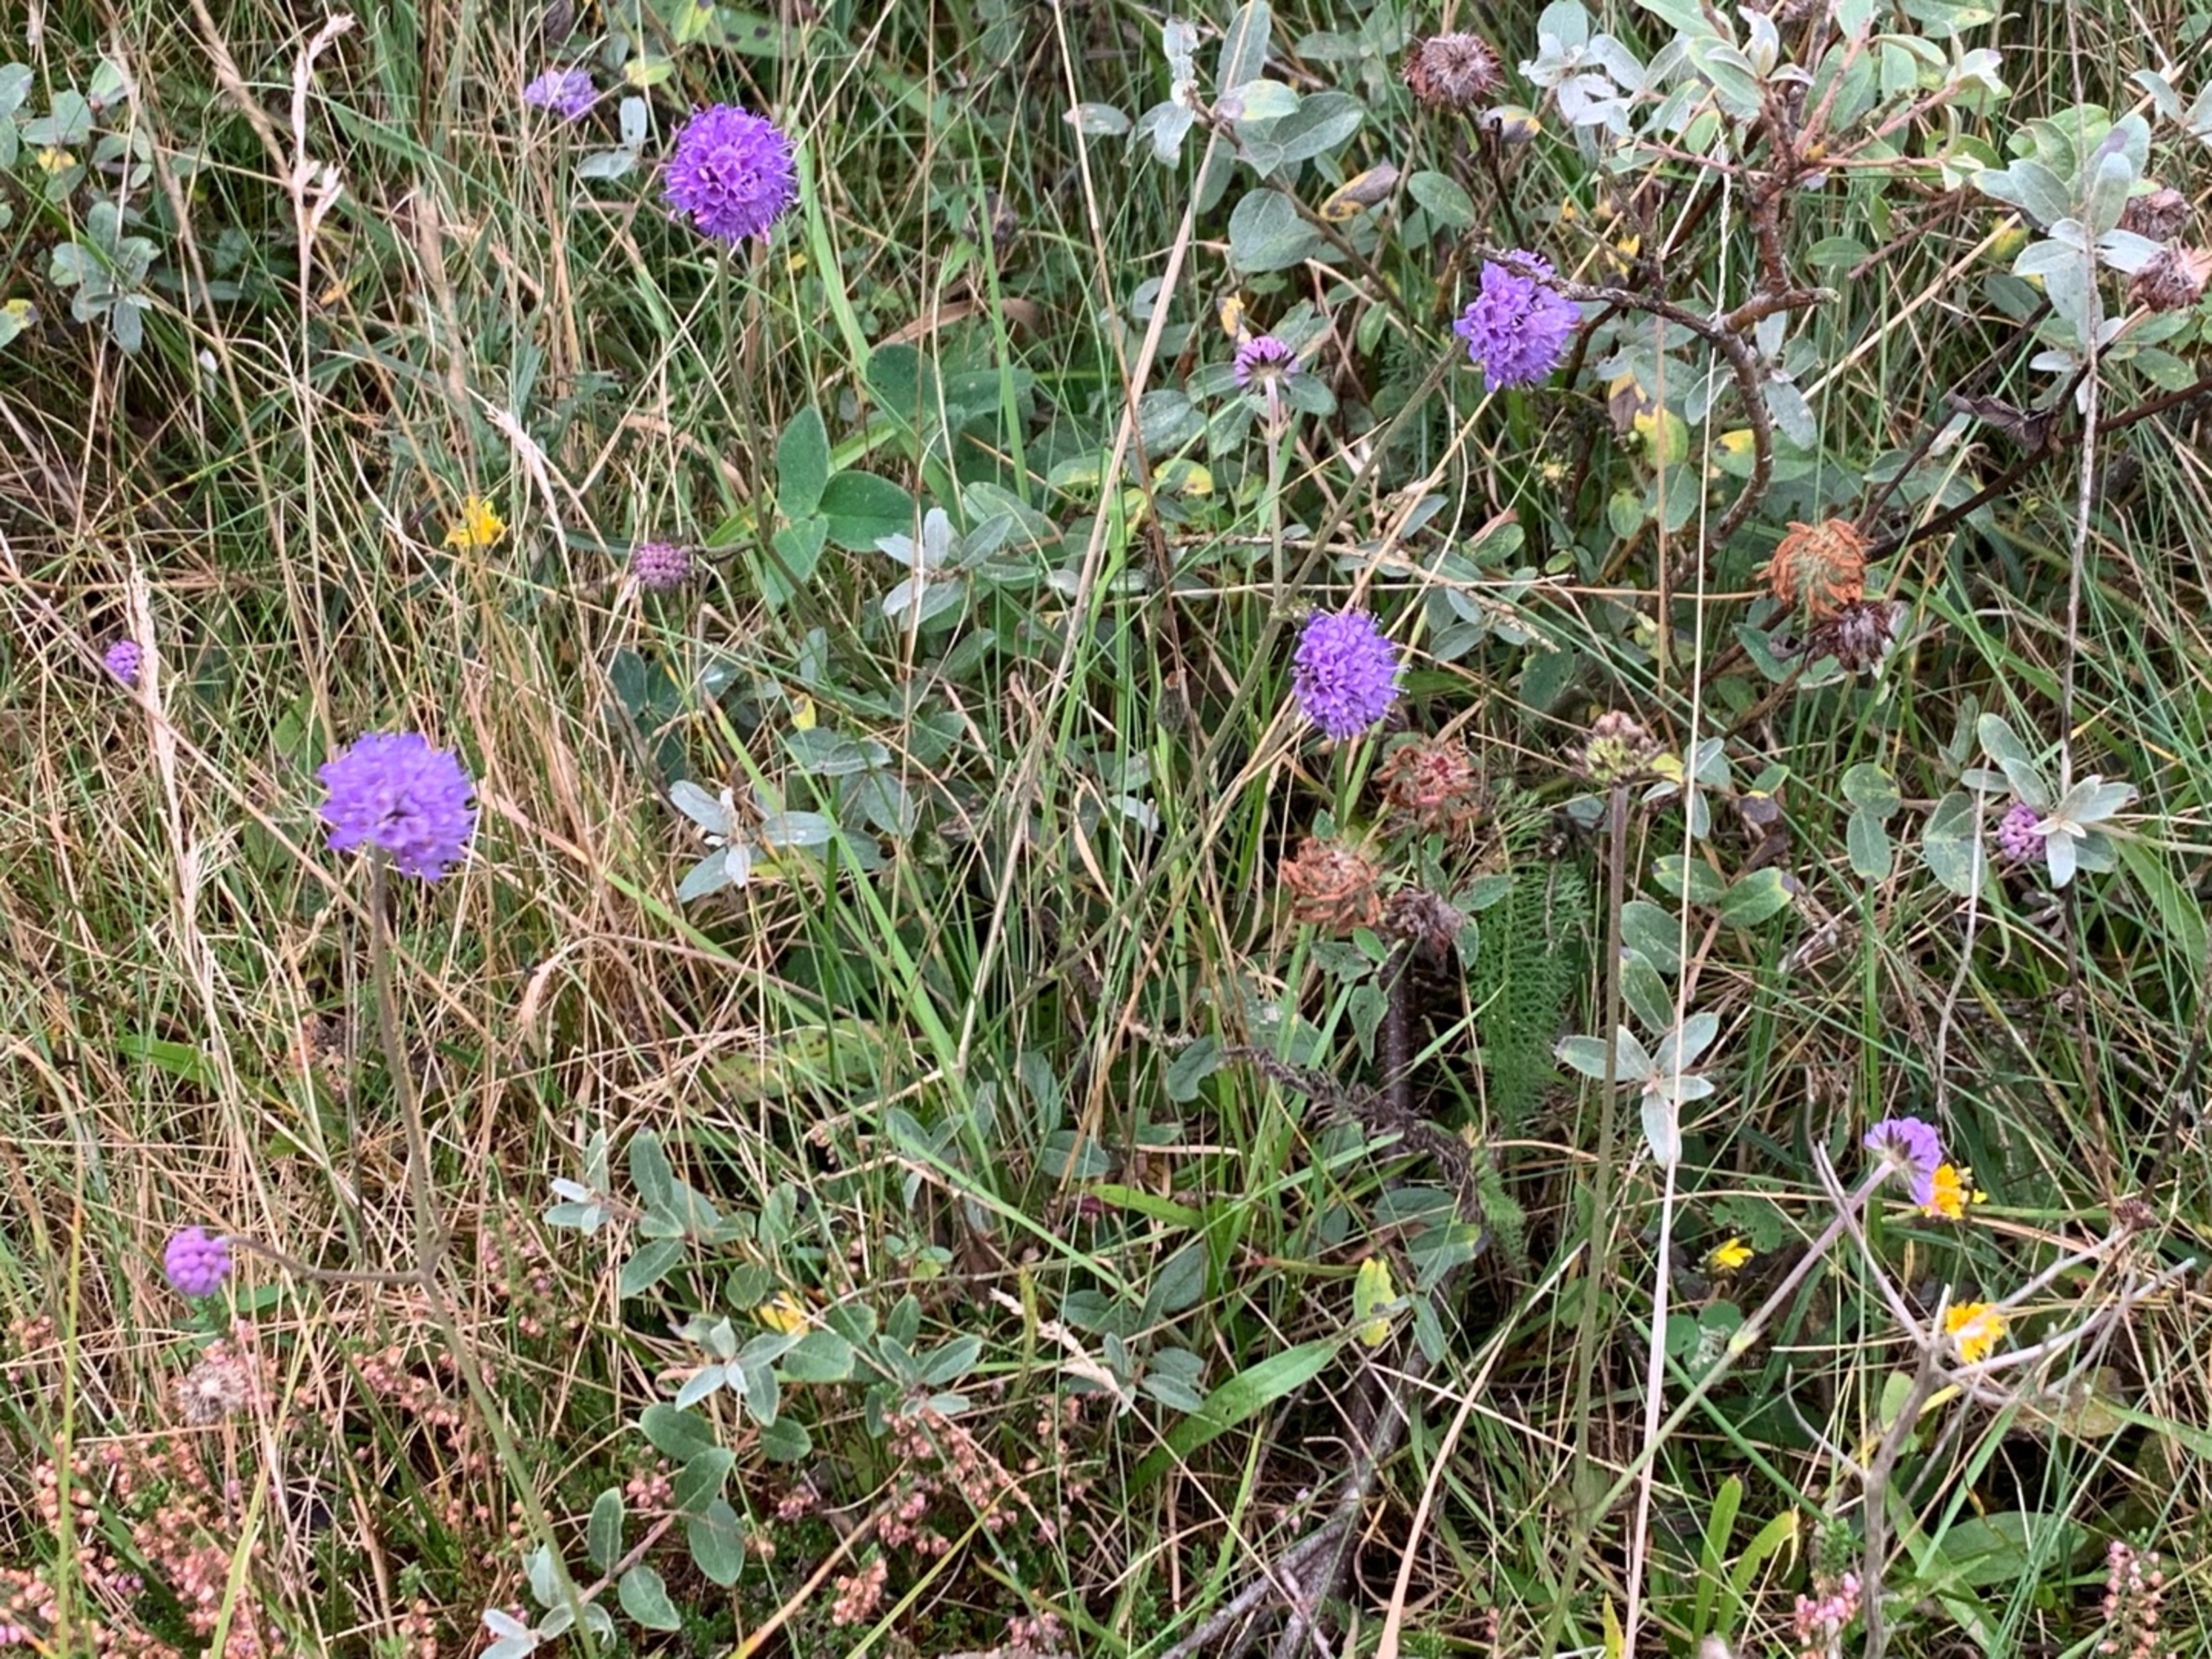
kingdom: Plantae
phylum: Tracheophyta
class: Magnoliopsida
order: Dipsacales
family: Caprifoliaceae
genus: Succisa
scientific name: Succisa pratensis
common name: Djævelsbid
